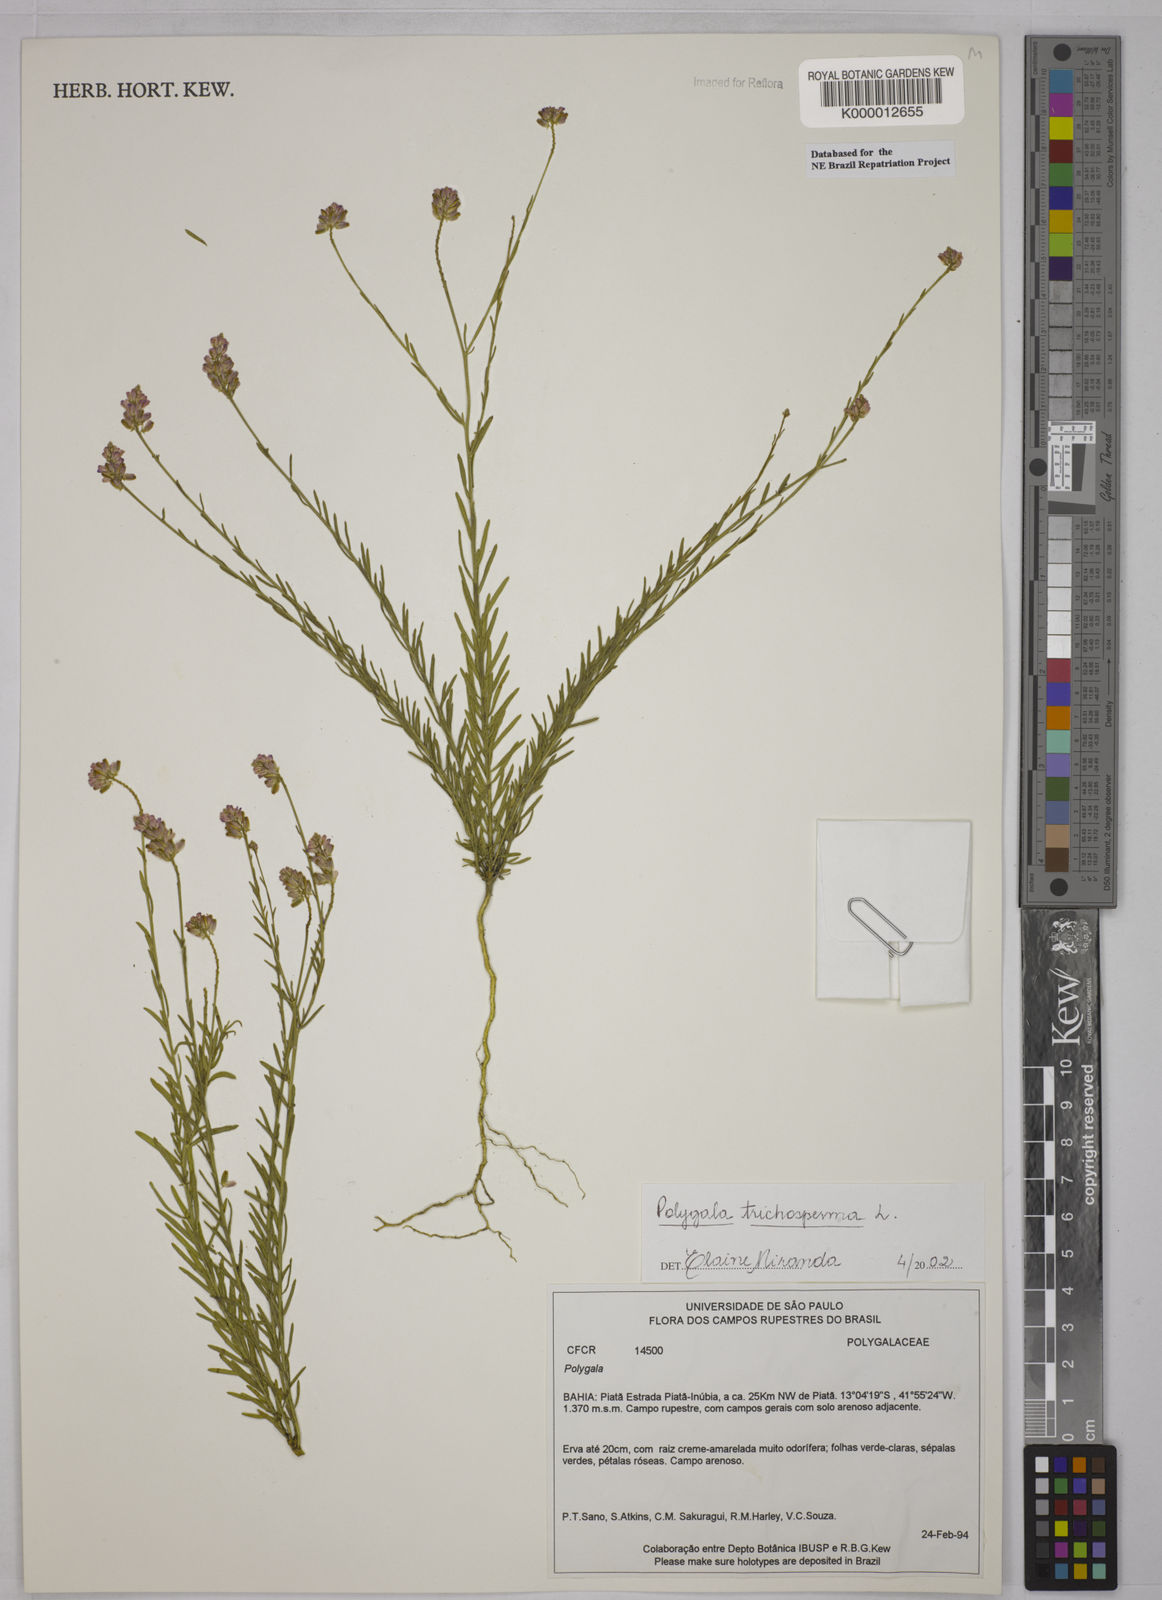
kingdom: Plantae
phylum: Tracheophyta
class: Magnoliopsida
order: Fabales
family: Polygalaceae
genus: Polygala
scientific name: Polygala
